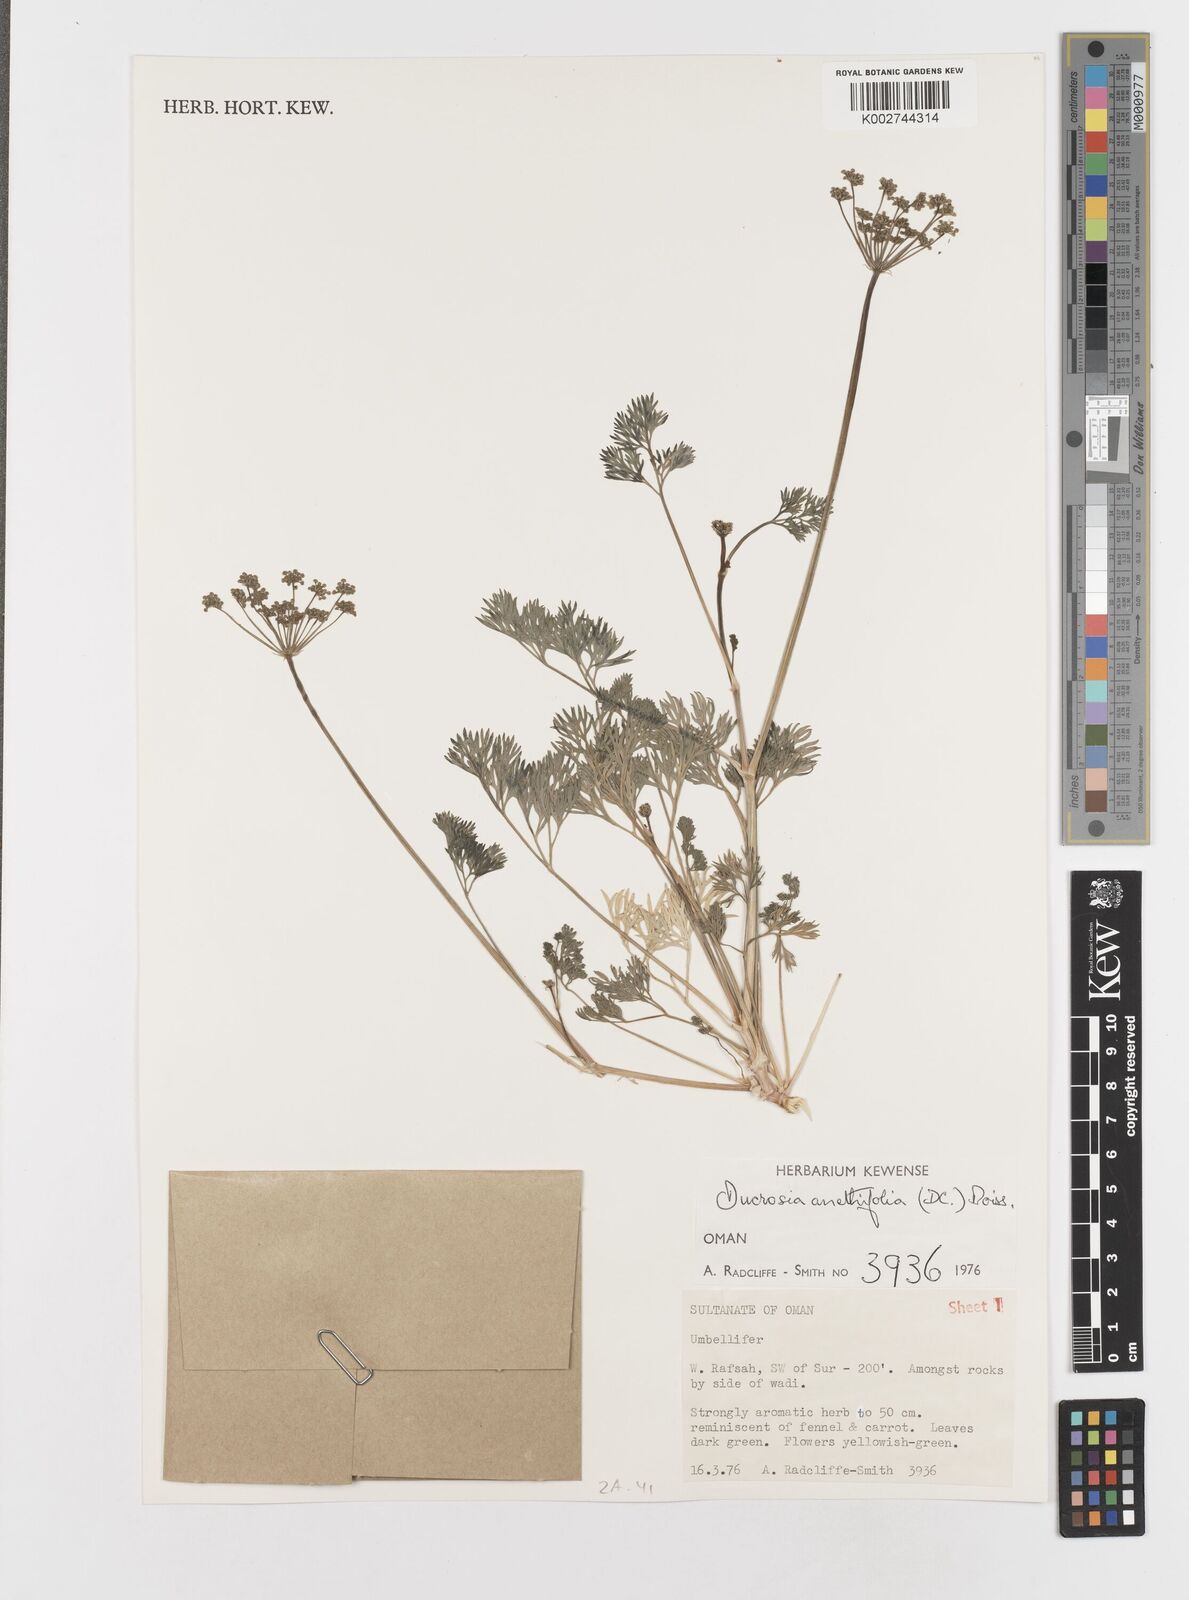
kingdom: Plantae
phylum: Tracheophyta
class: Magnoliopsida
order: Apiales
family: Apiaceae
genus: Ducrosia
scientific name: Ducrosia anethifolia
